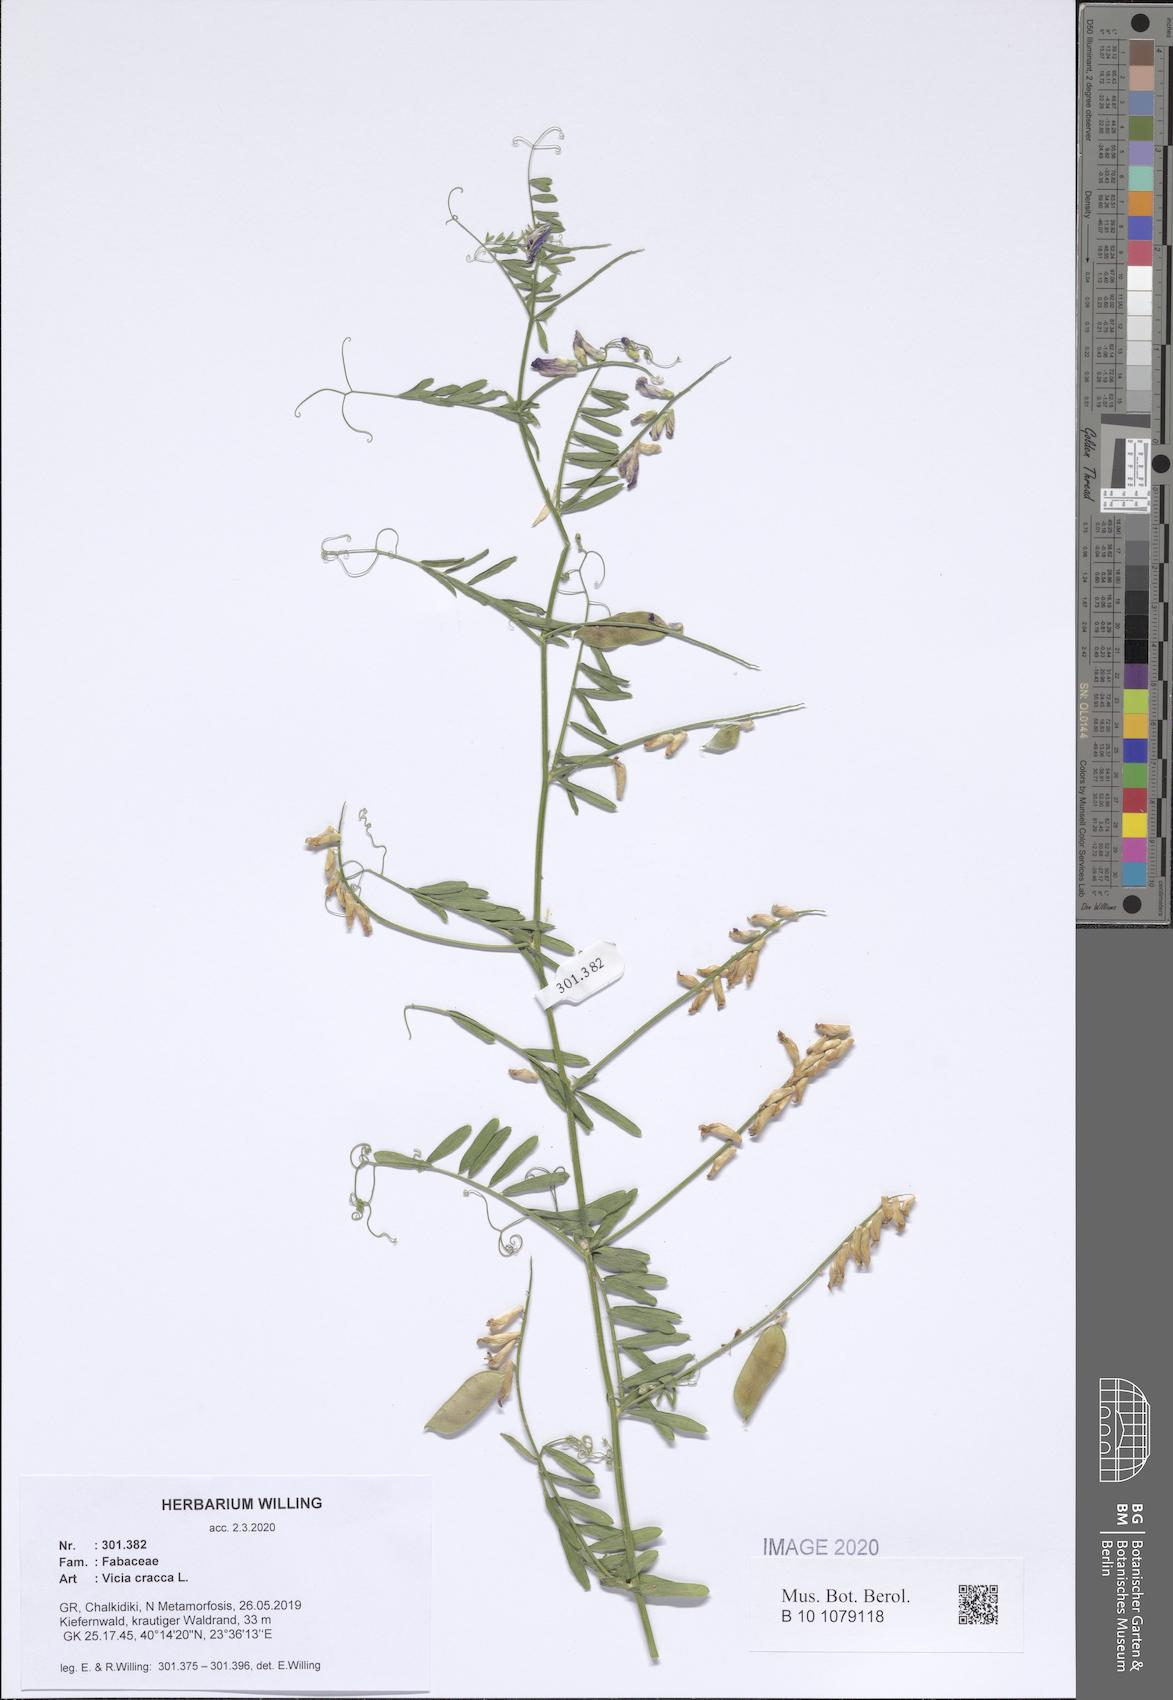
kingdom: Plantae
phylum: Tracheophyta
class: Magnoliopsida
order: Fabales
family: Fabaceae
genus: Vicia
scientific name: Vicia cracca
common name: Bird vetch
